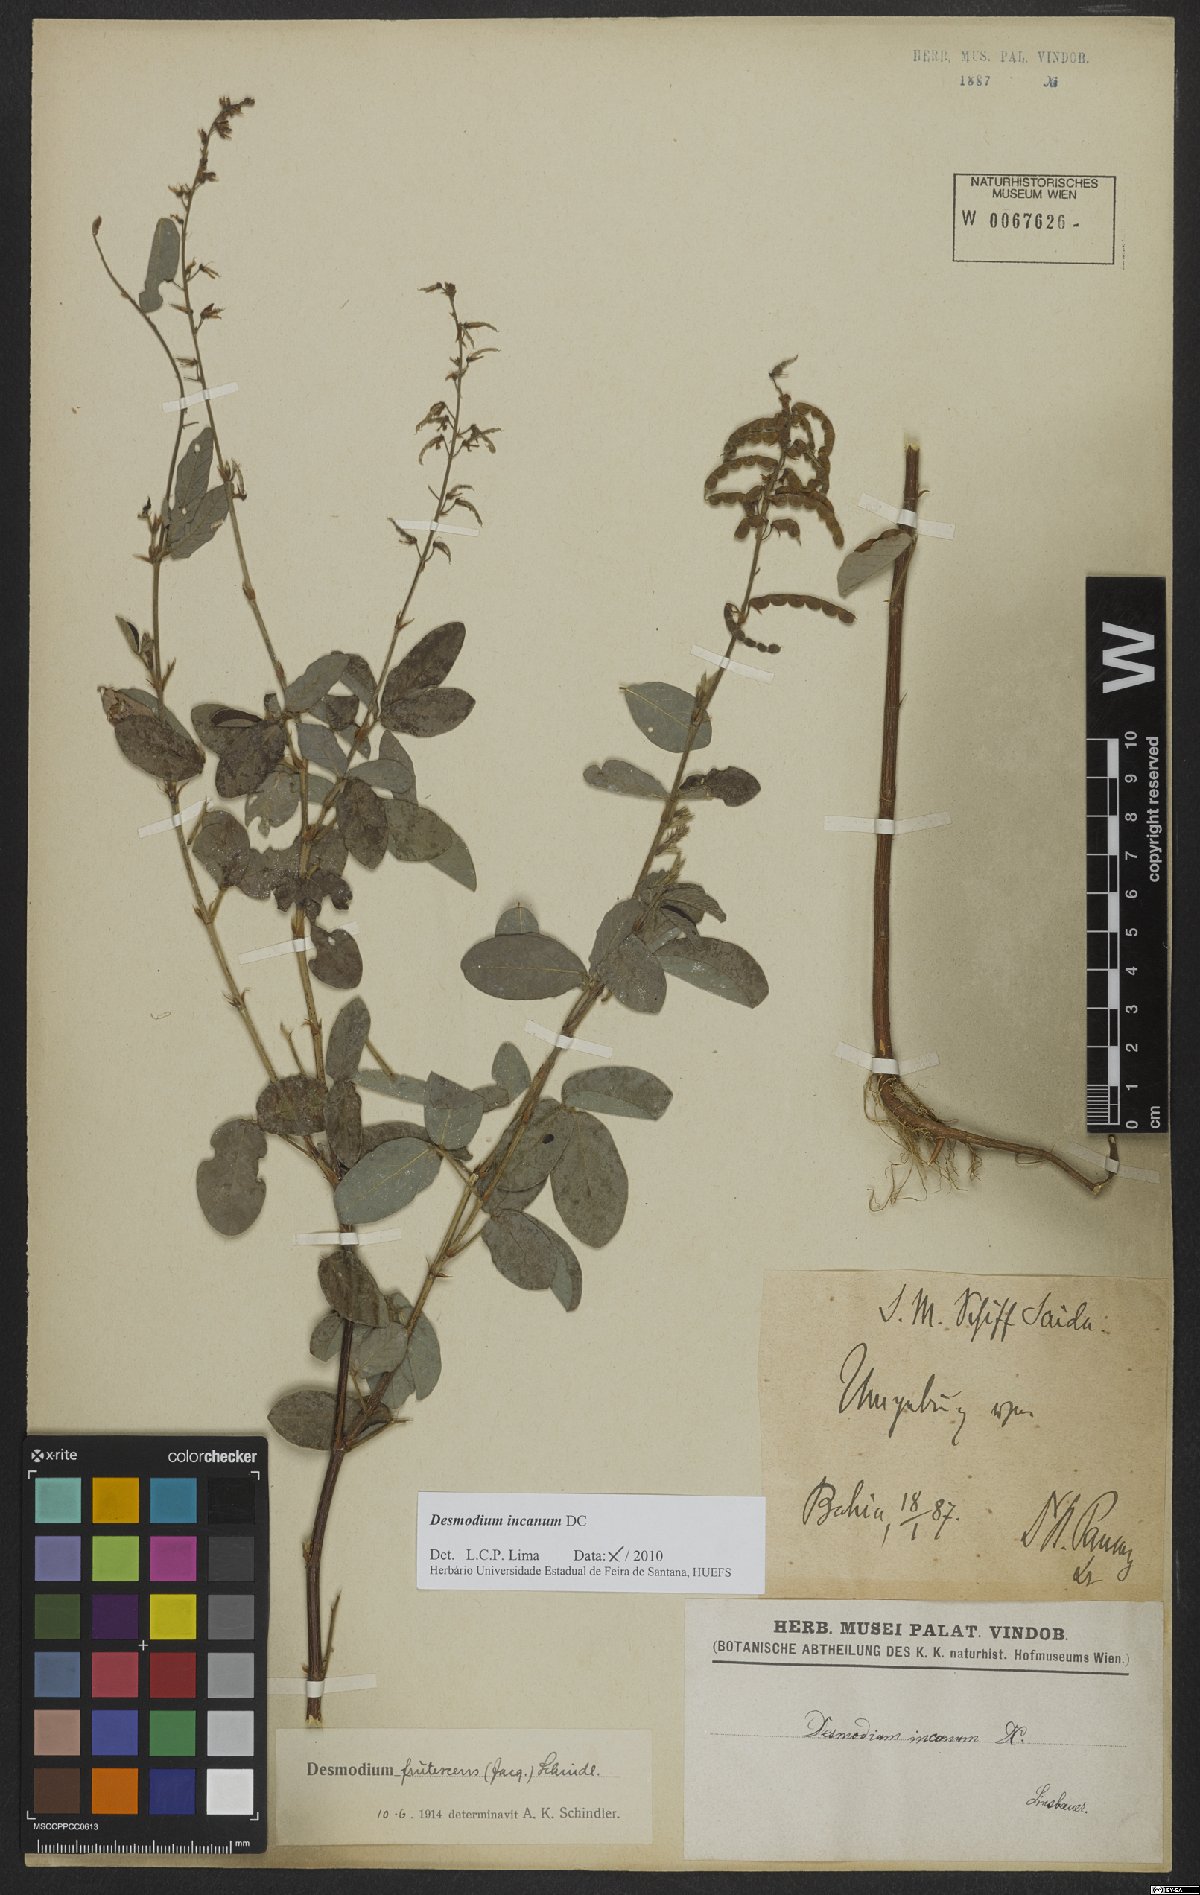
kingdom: Plantae
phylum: Tracheophyta
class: Magnoliopsida
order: Fabales
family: Fabaceae
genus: Desmodium
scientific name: Desmodium incanum
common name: Tickclover
